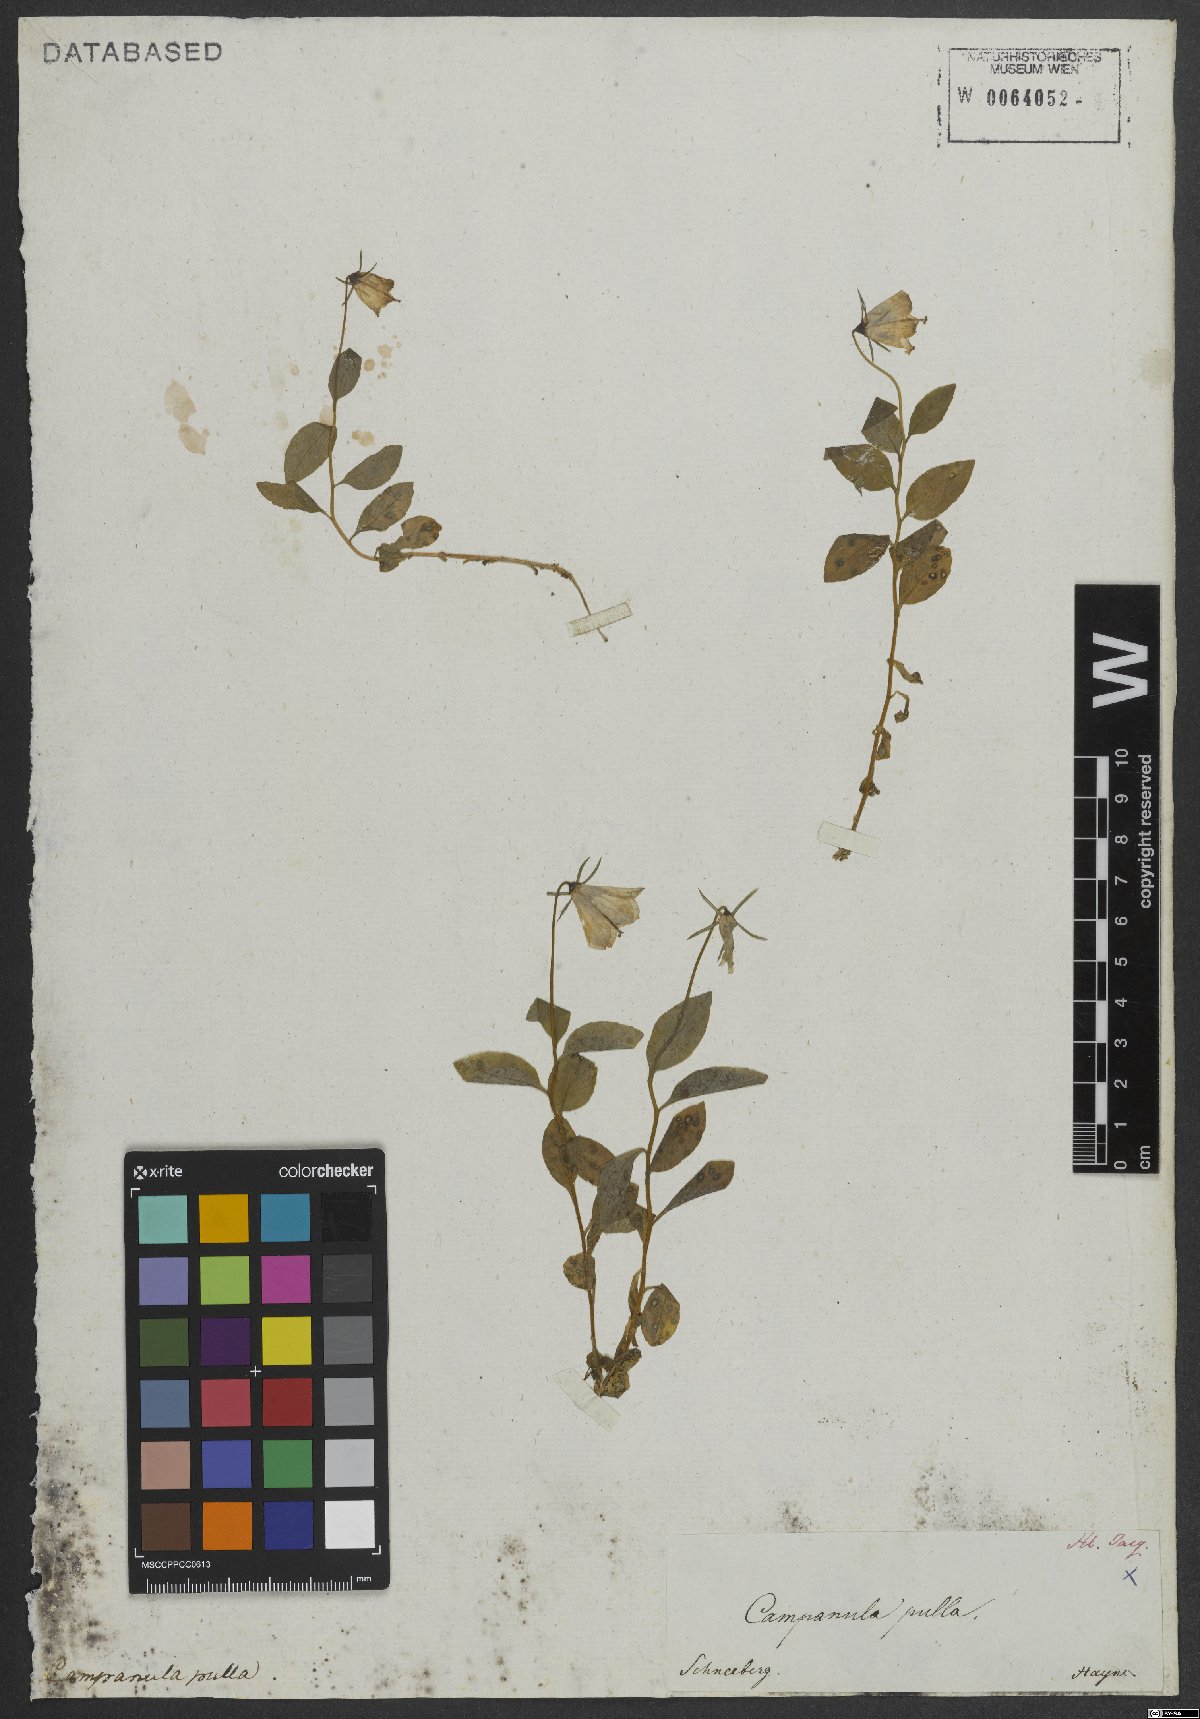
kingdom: Plantae
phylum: Tracheophyta
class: Magnoliopsida
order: Asterales
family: Campanulaceae
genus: Campanula
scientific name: Campanula pulla
